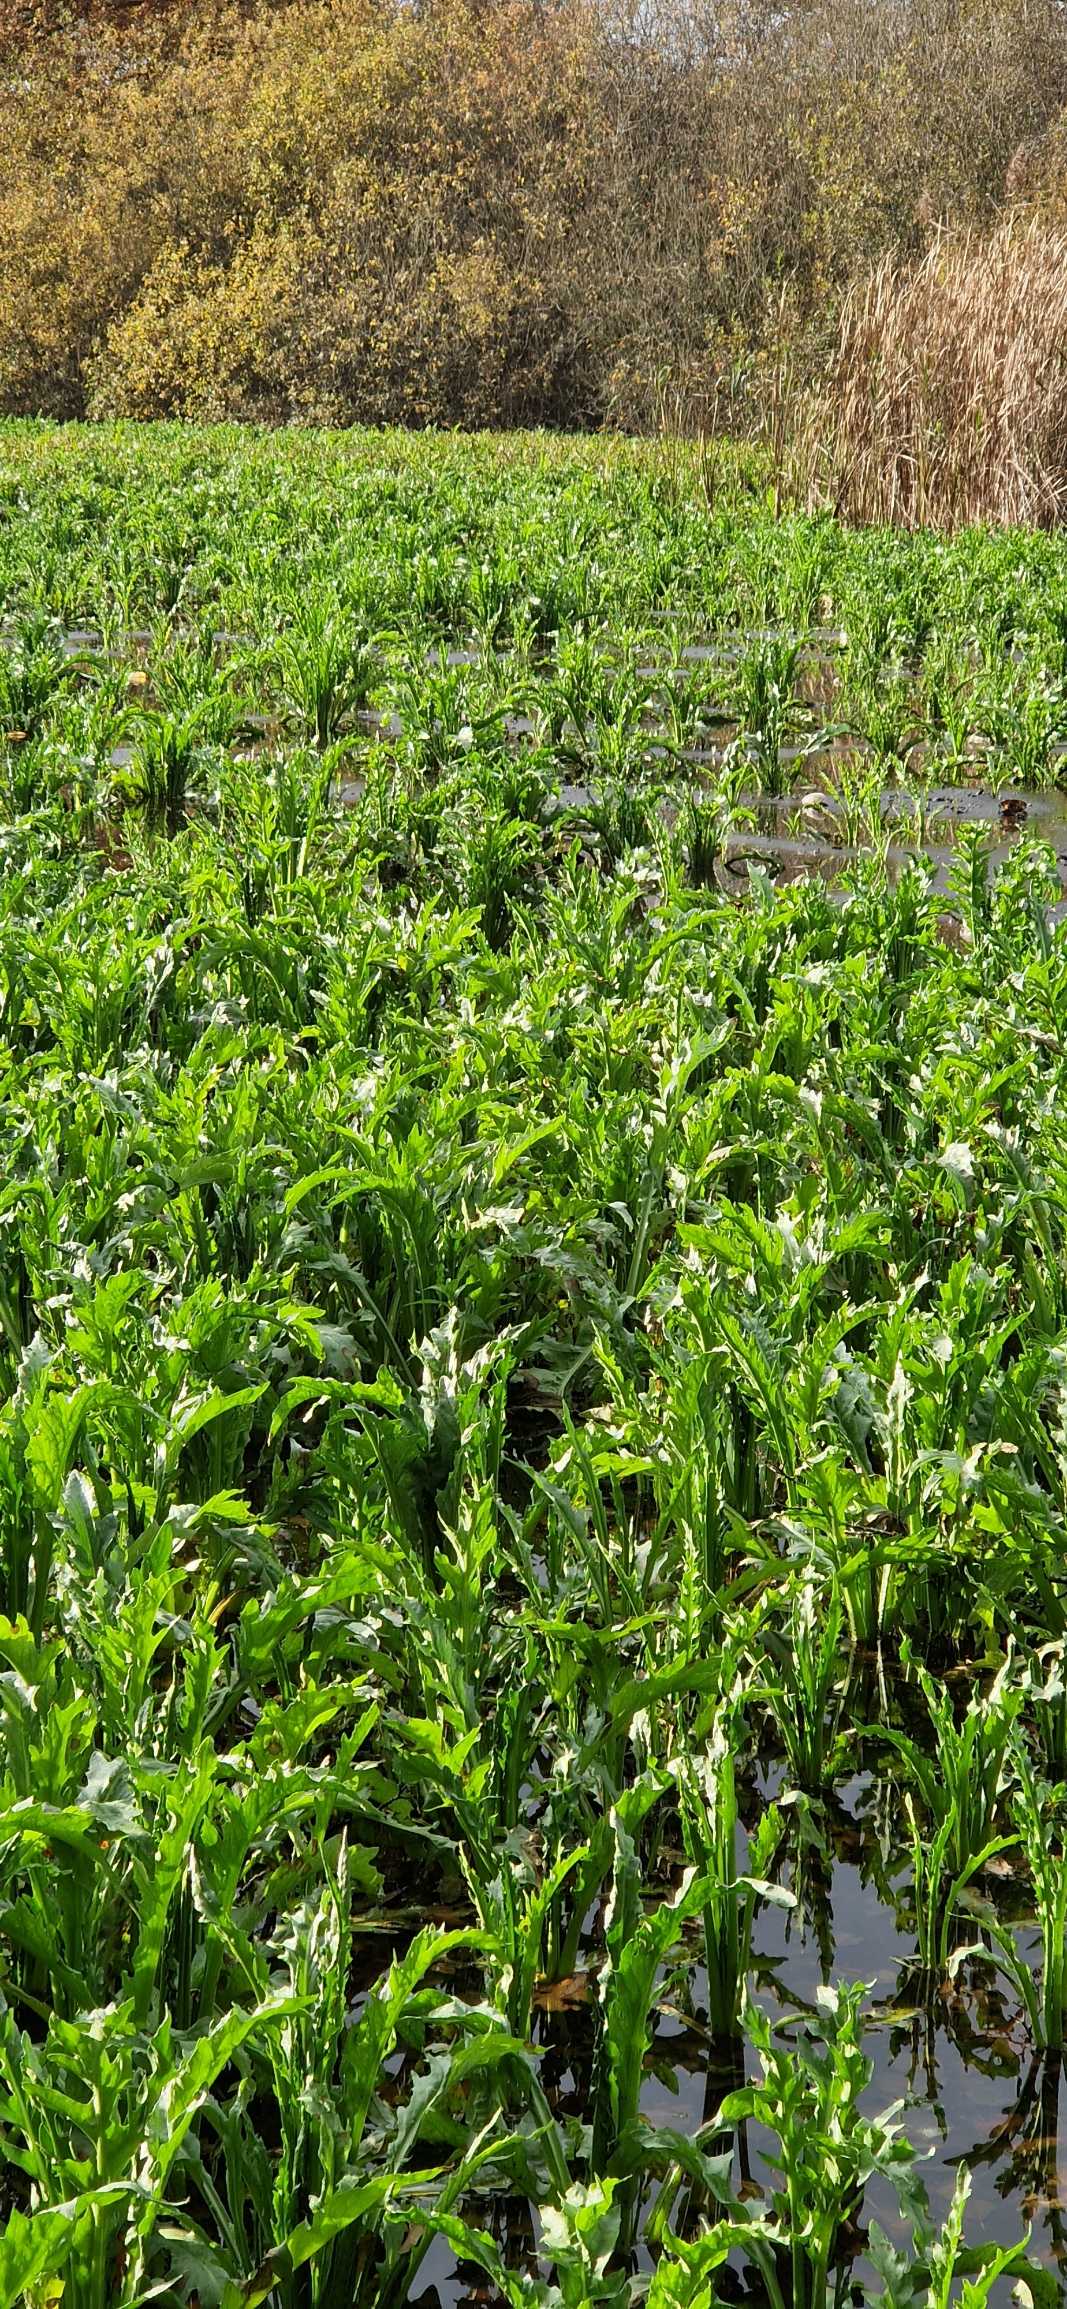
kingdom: Plantae
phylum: Tracheophyta
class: Magnoliopsida
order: Asterales
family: Asteraceae
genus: Tephroseris
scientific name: Tephroseris palustris
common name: Kær-fnokurt
